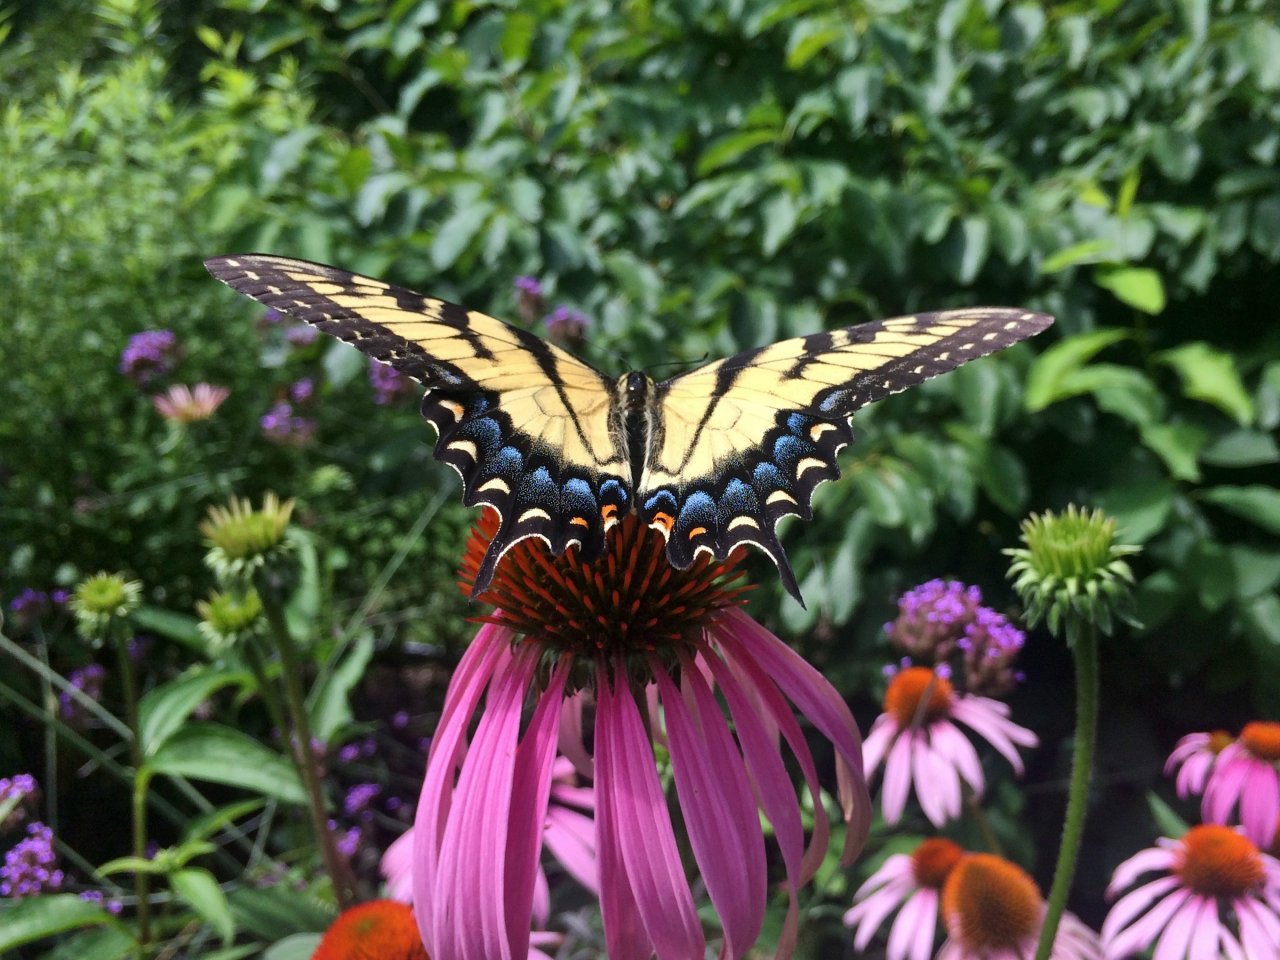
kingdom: Animalia
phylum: Arthropoda
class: Insecta
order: Lepidoptera
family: Papilionidae
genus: Pterourus
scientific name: Pterourus glaucus
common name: Eastern Tiger Swallowtail
